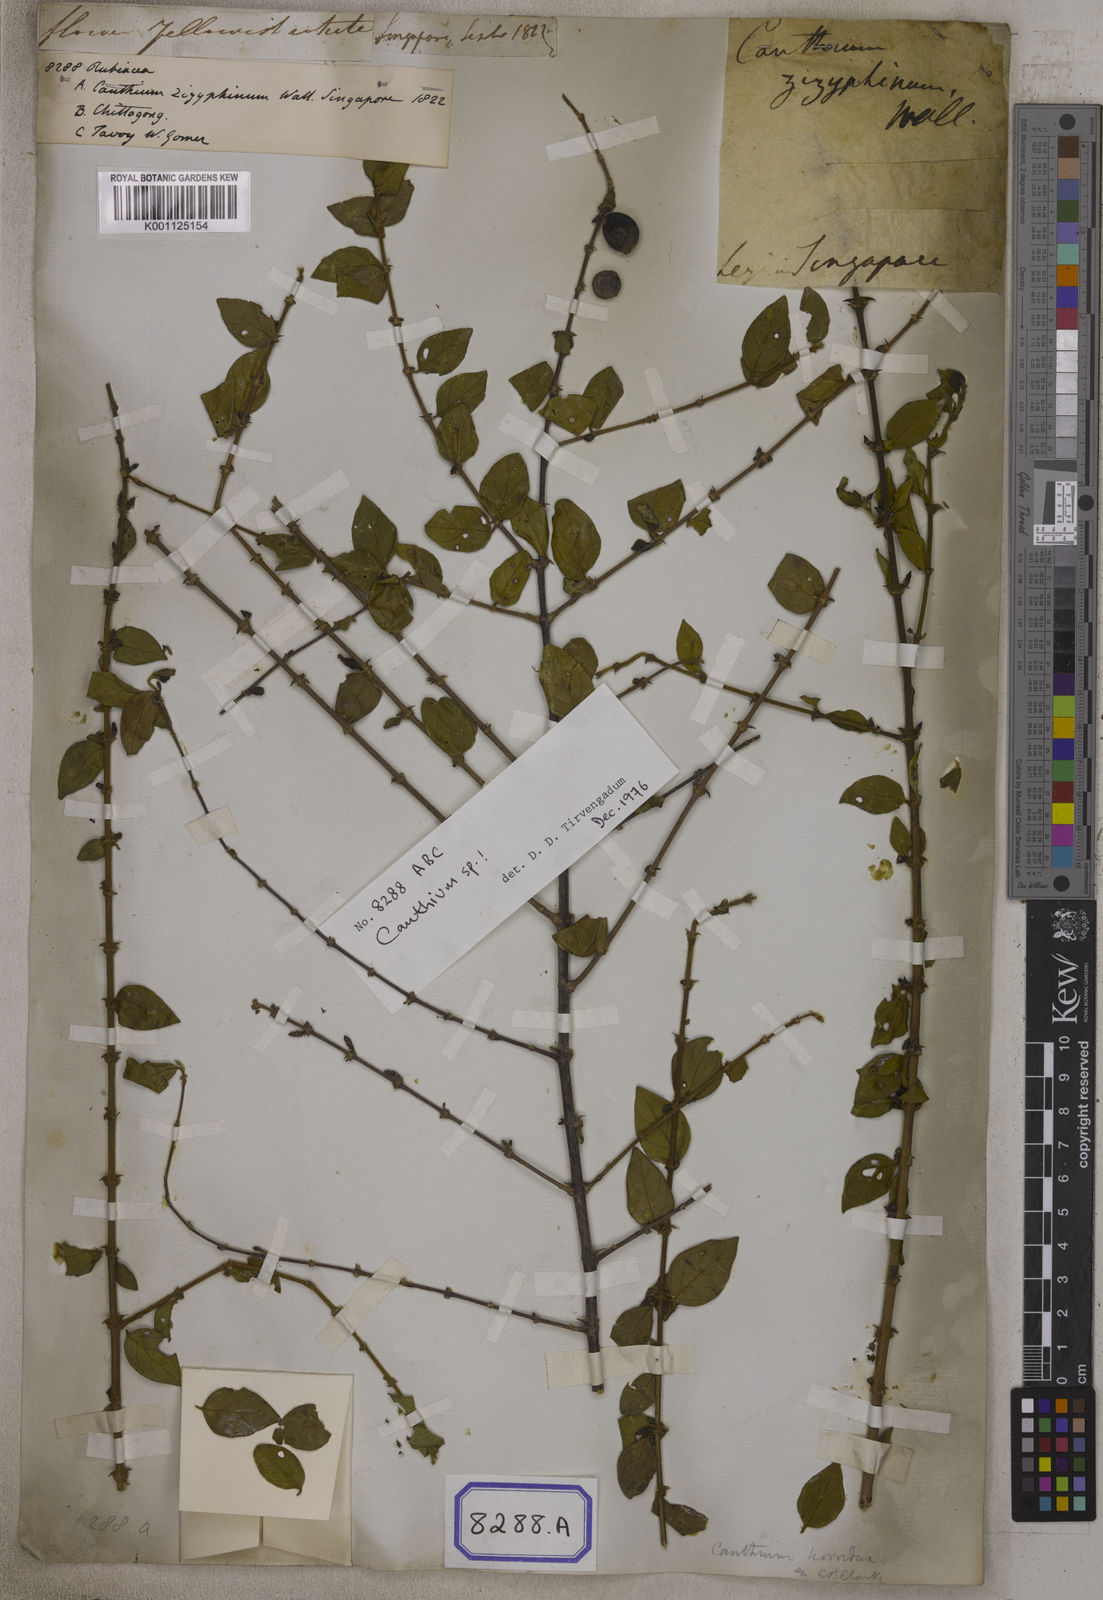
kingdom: Plantae
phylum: Tracheophyta
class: Magnoliopsida
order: Gentianales
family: Rubiaceae
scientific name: Rubiaceae
